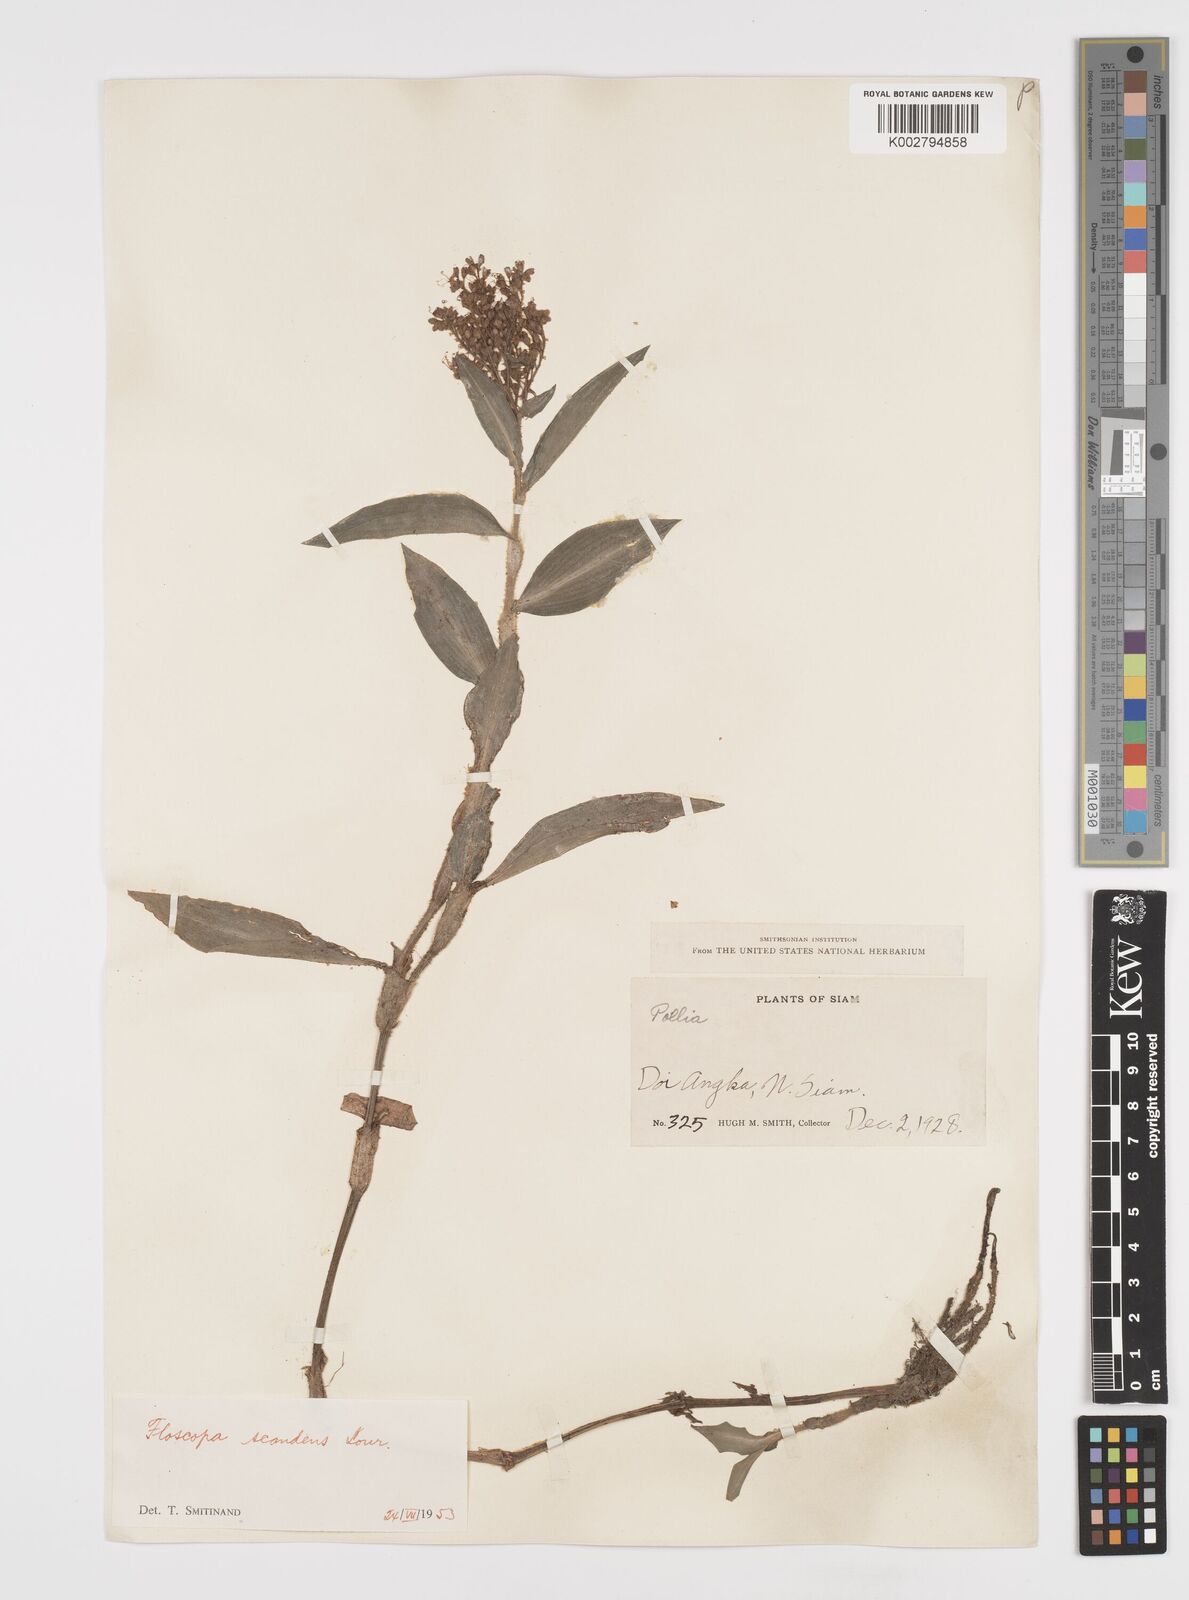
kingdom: Plantae
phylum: Tracheophyta
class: Liliopsida
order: Commelinales
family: Commelinaceae
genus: Floscopa
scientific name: Floscopa scandens
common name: Climbing flower cup
